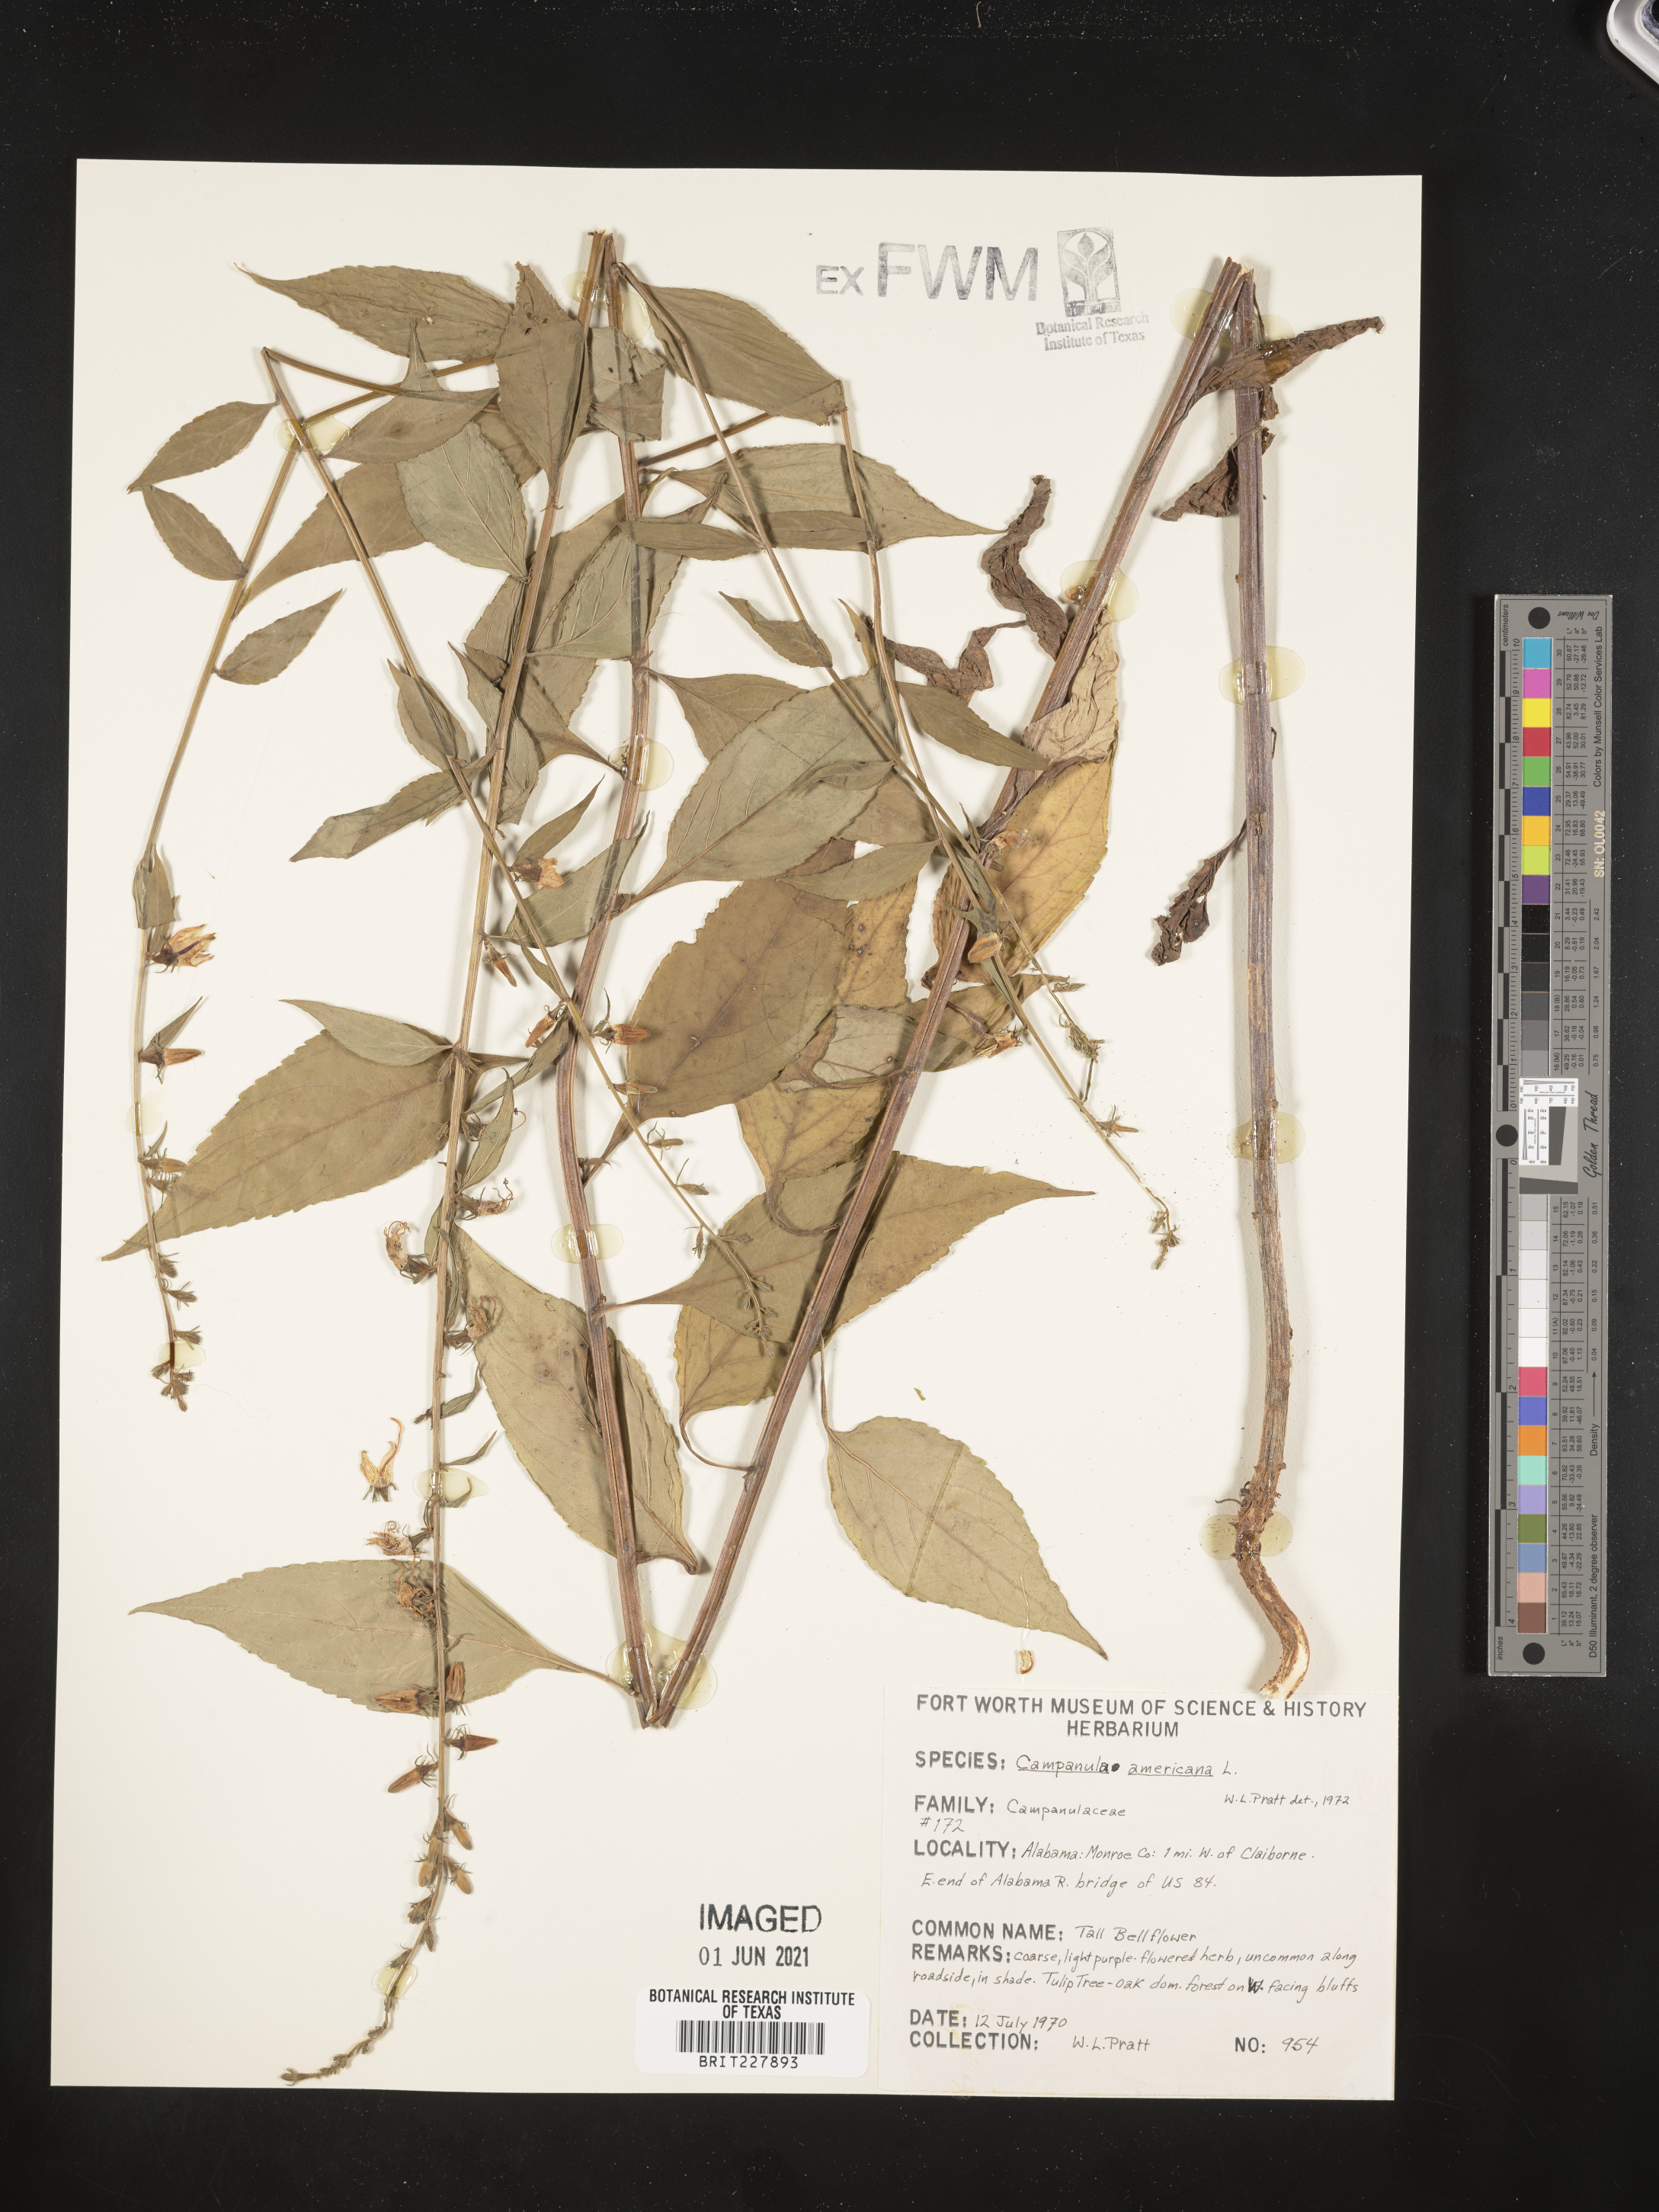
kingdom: Plantae
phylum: Tracheophyta
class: Magnoliopsida
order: Asterales
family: Campanulaceae
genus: Campanula
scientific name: Campanula americana
